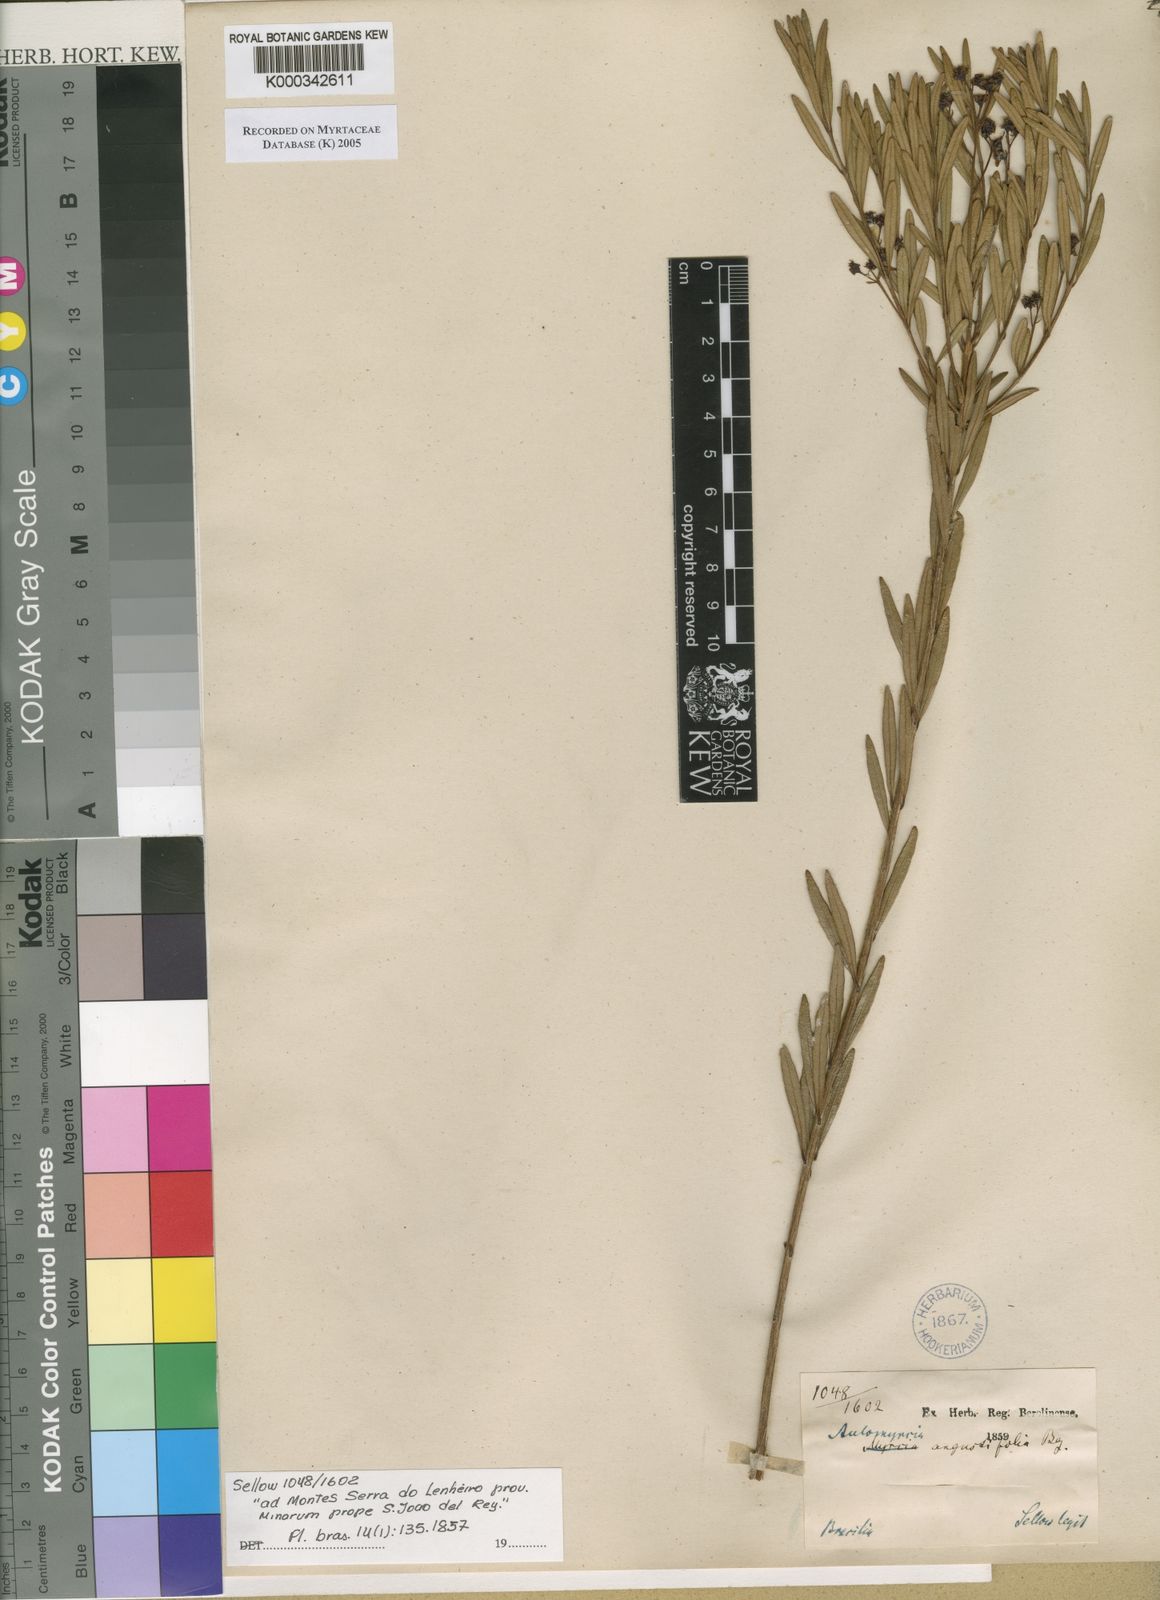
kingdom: Plantae
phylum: Tracheophyta
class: Magnoliopsida
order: Myrtales
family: Myrtaceae
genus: Myrcia
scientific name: Myrcia angustifolia
